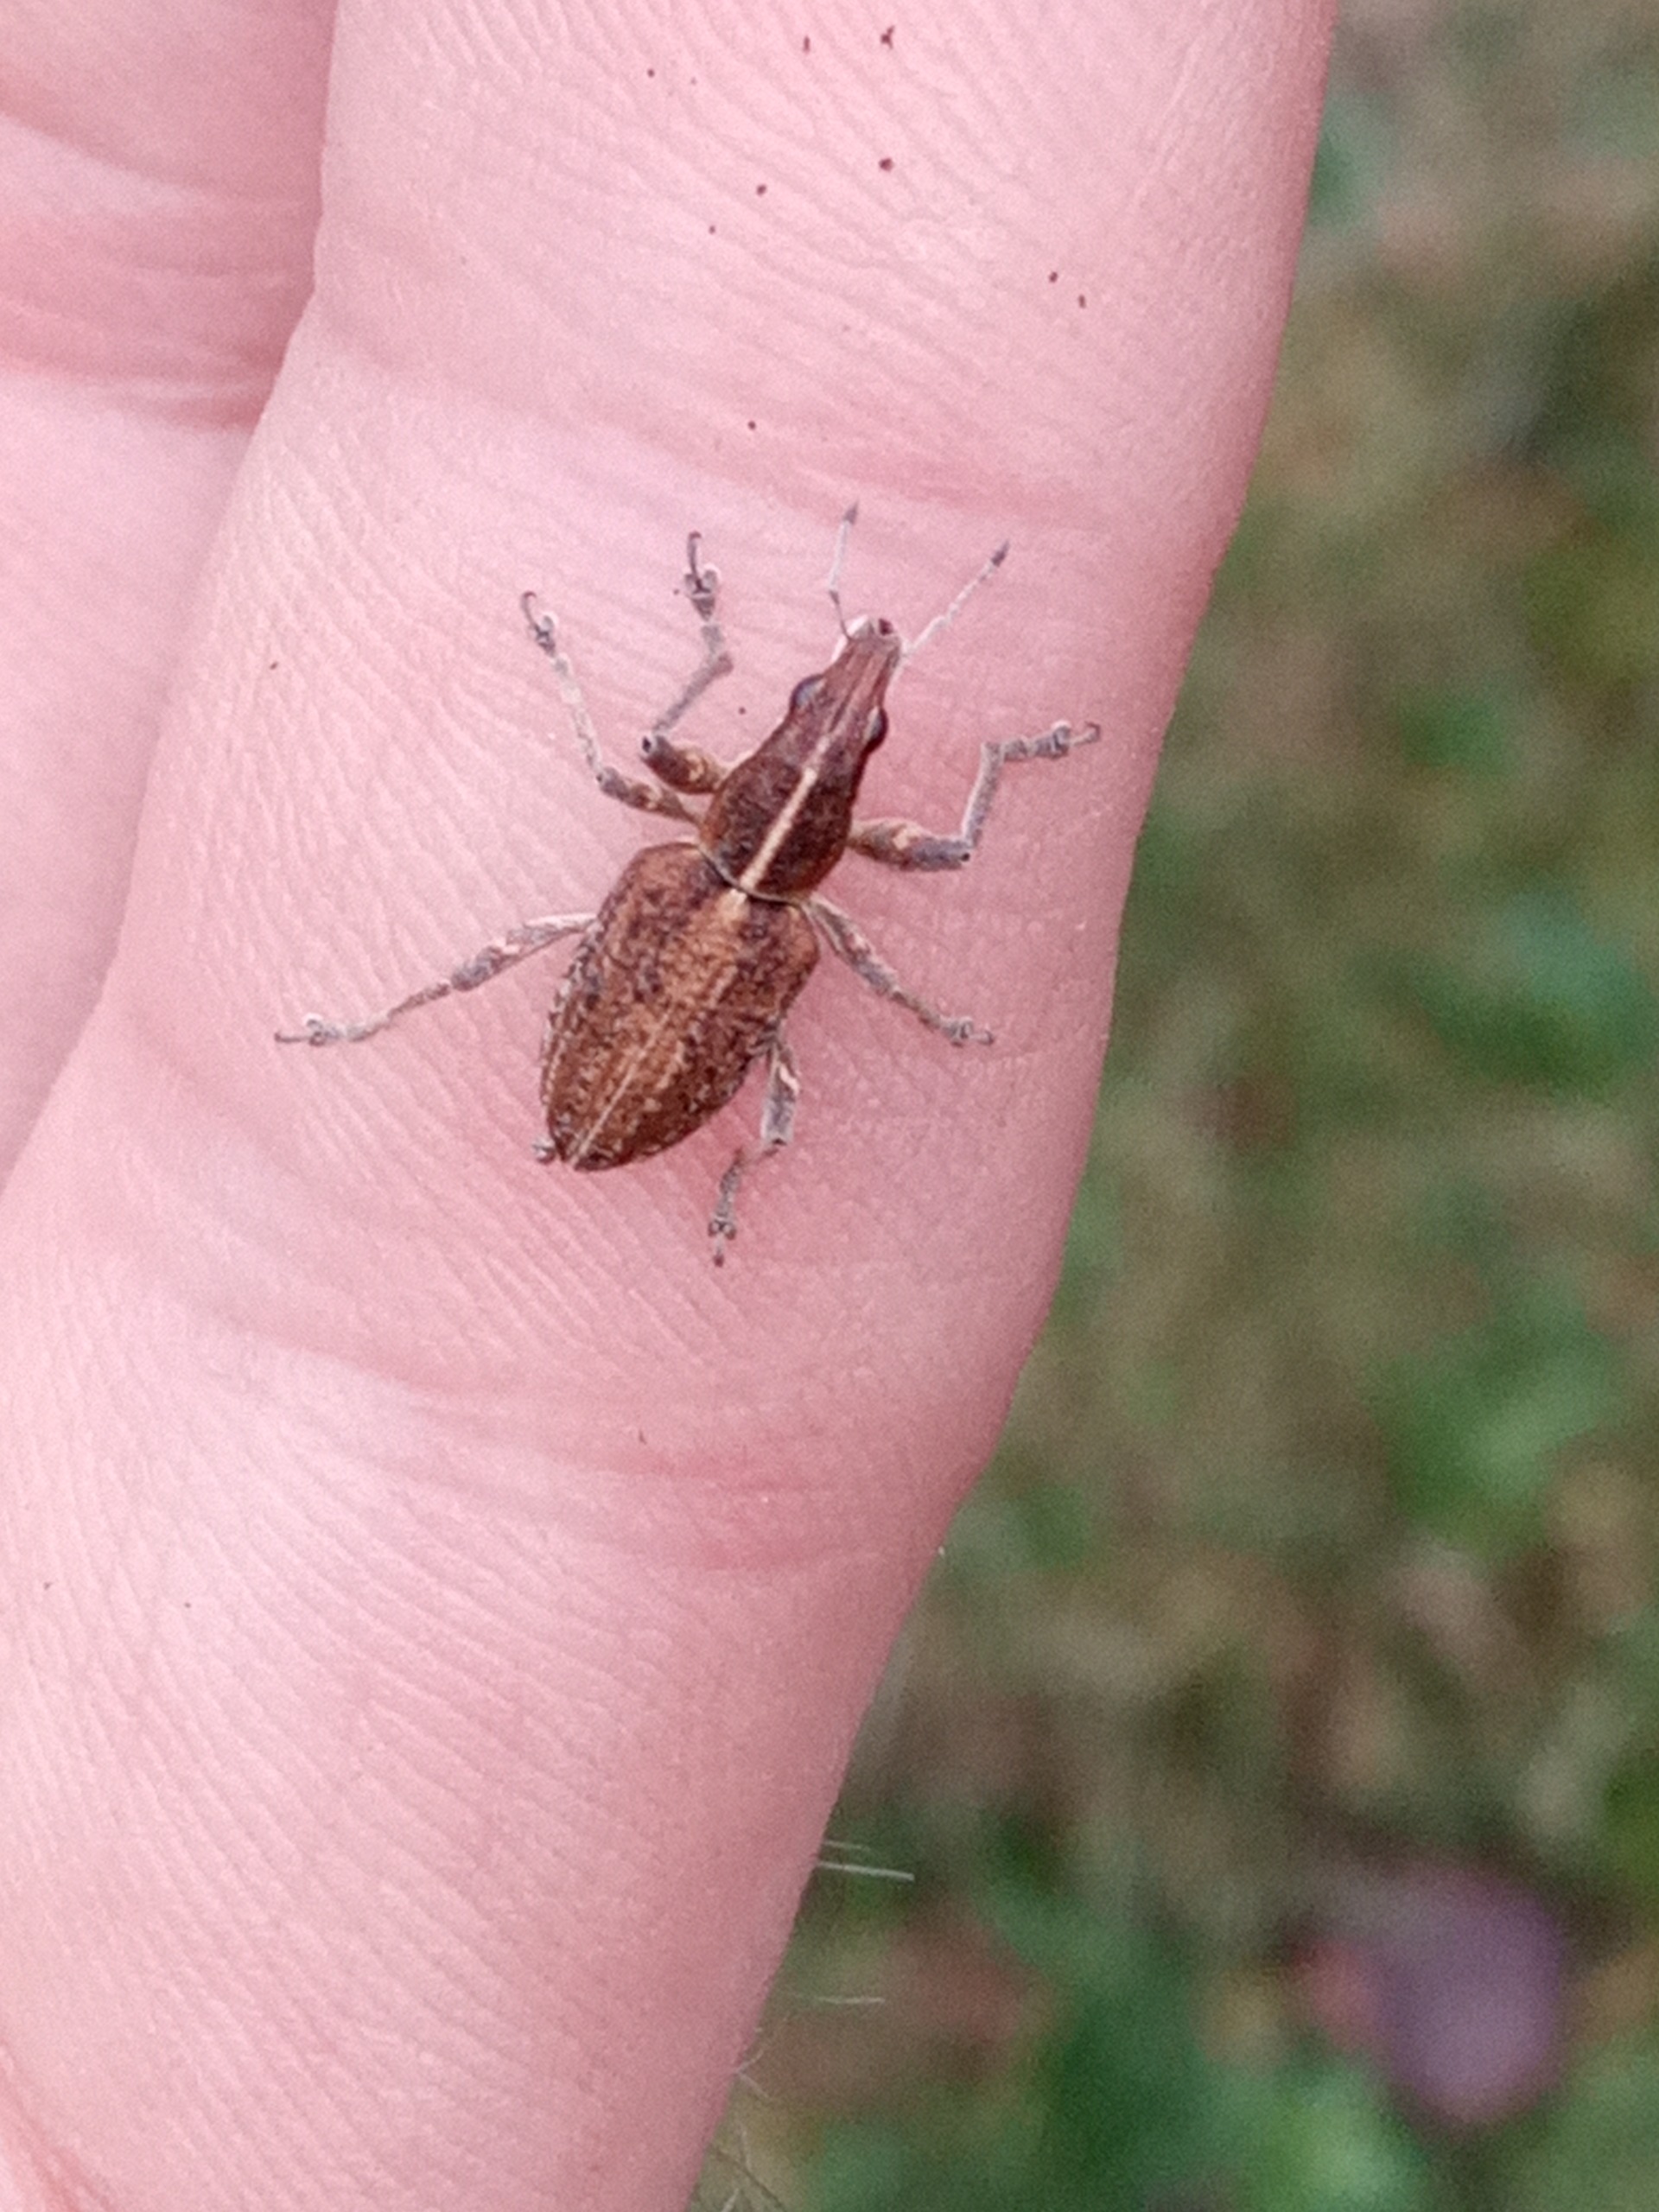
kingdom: Animalia
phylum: Arthropoda
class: Insecta
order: Coleoptera
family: Curculionidae
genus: Charagmus
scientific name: Charagmus gressorius
